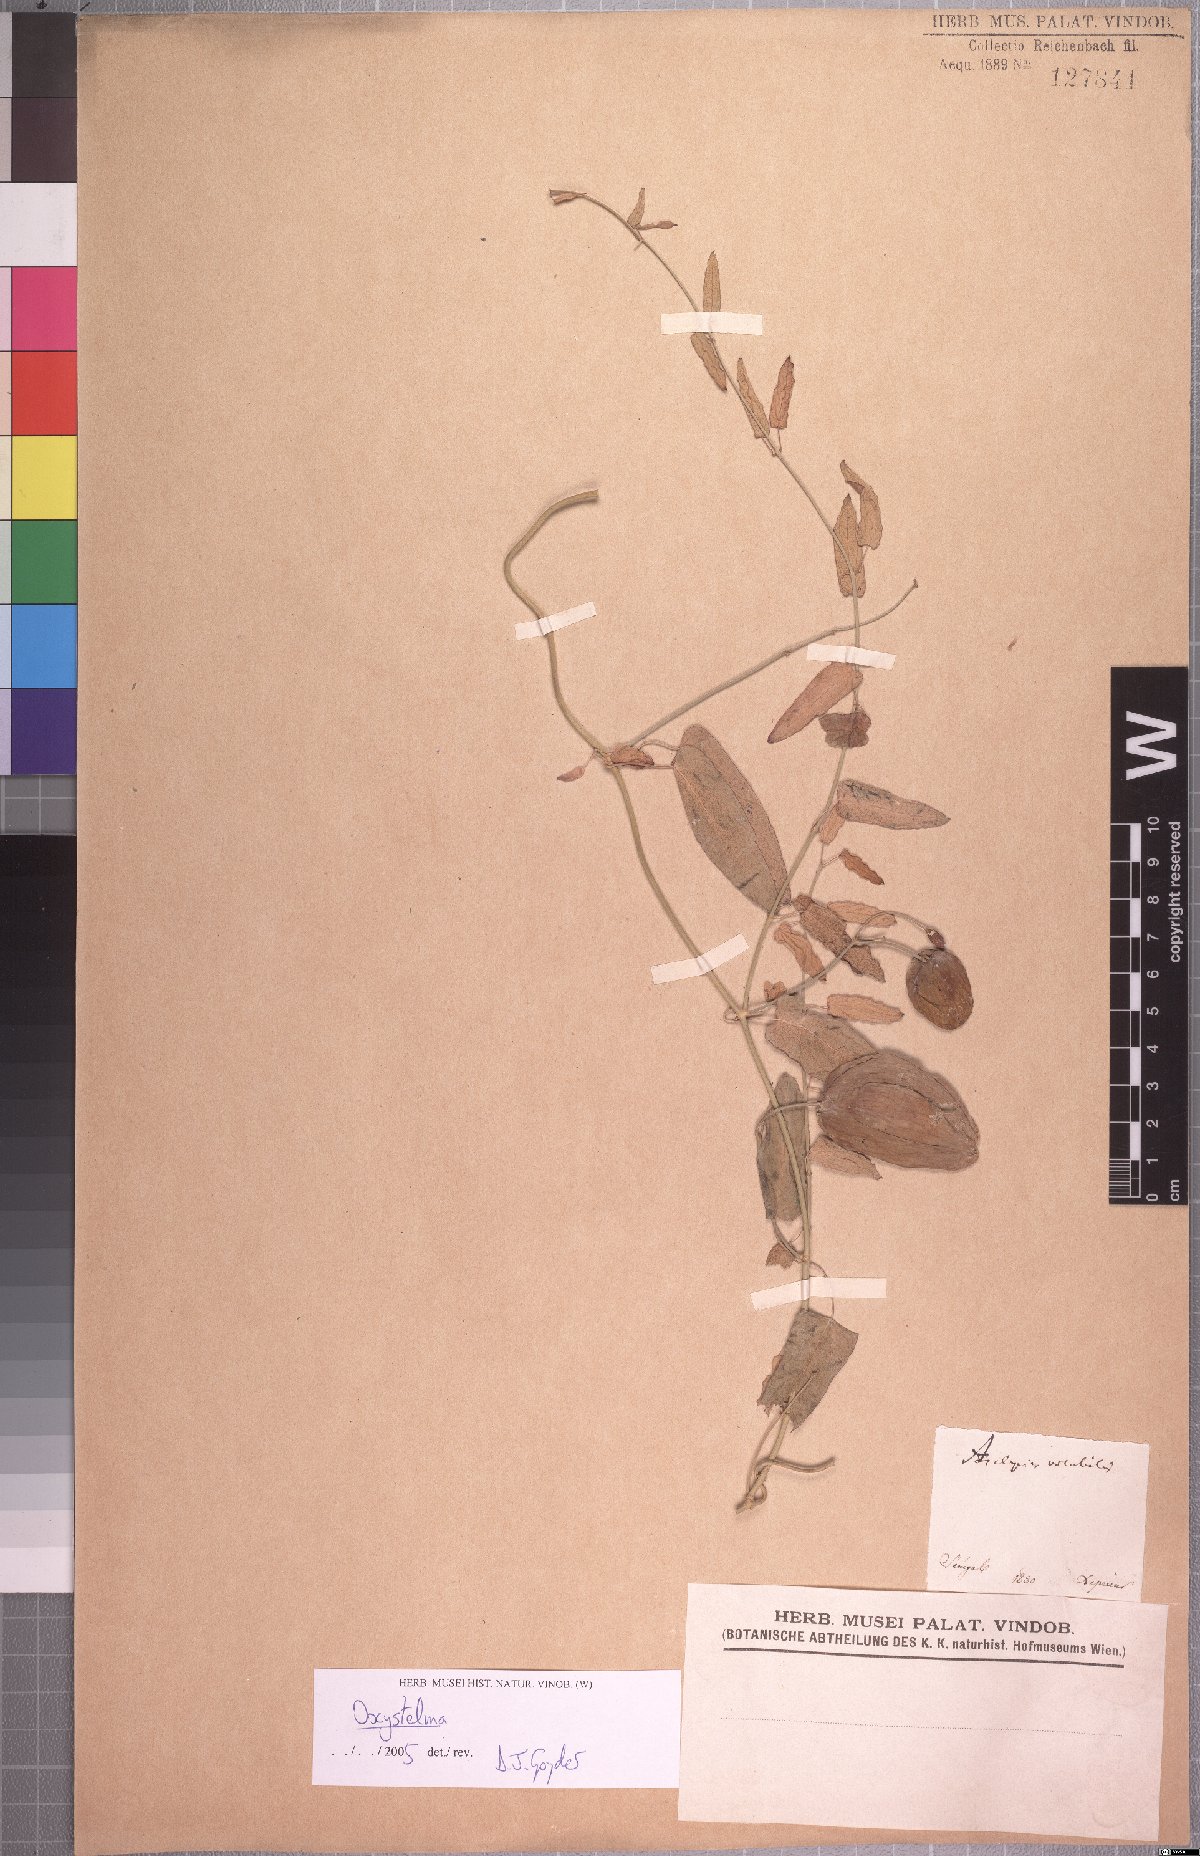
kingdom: Plantae
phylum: Tracheophyta
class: Magnoliopsida
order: Gentianales
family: Apocynaceae
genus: Oxystelma
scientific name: Oxystelma bornouense
